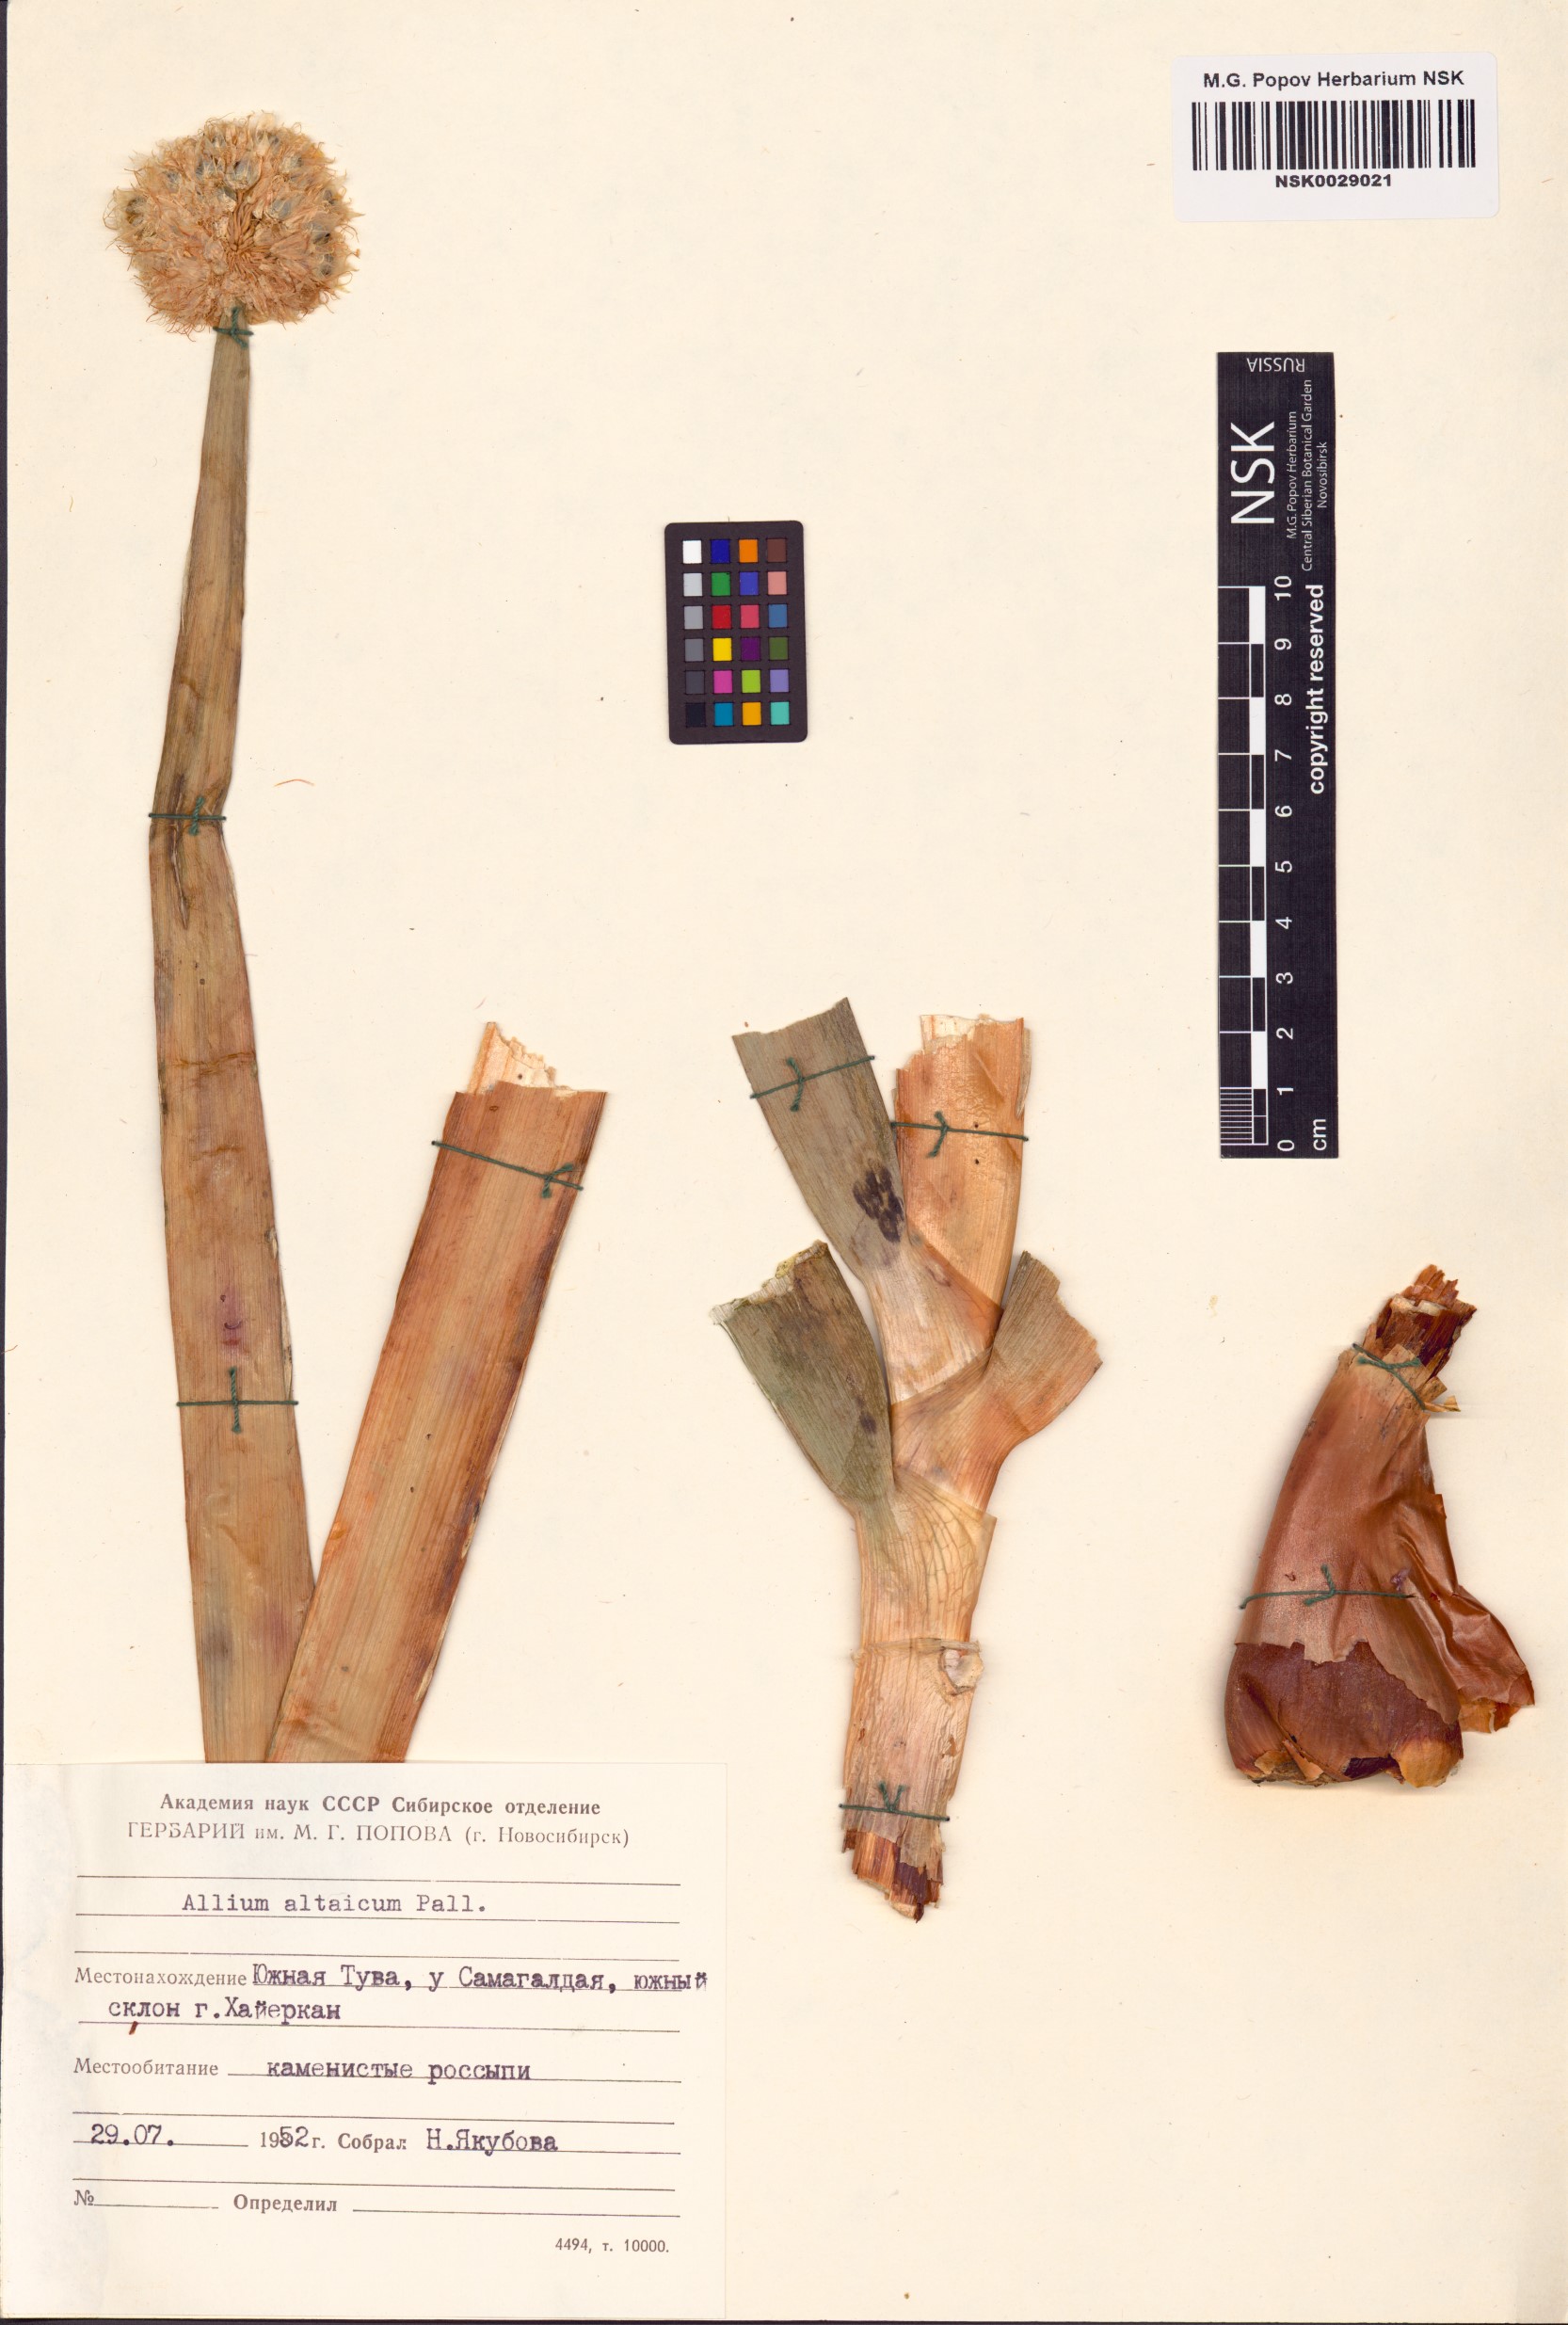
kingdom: Plantae
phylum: Tracheophyta
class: Liliopsida
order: Asparagales
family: Amaryllidaceae
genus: Allium
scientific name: Allium altaicum
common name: Altai onion
